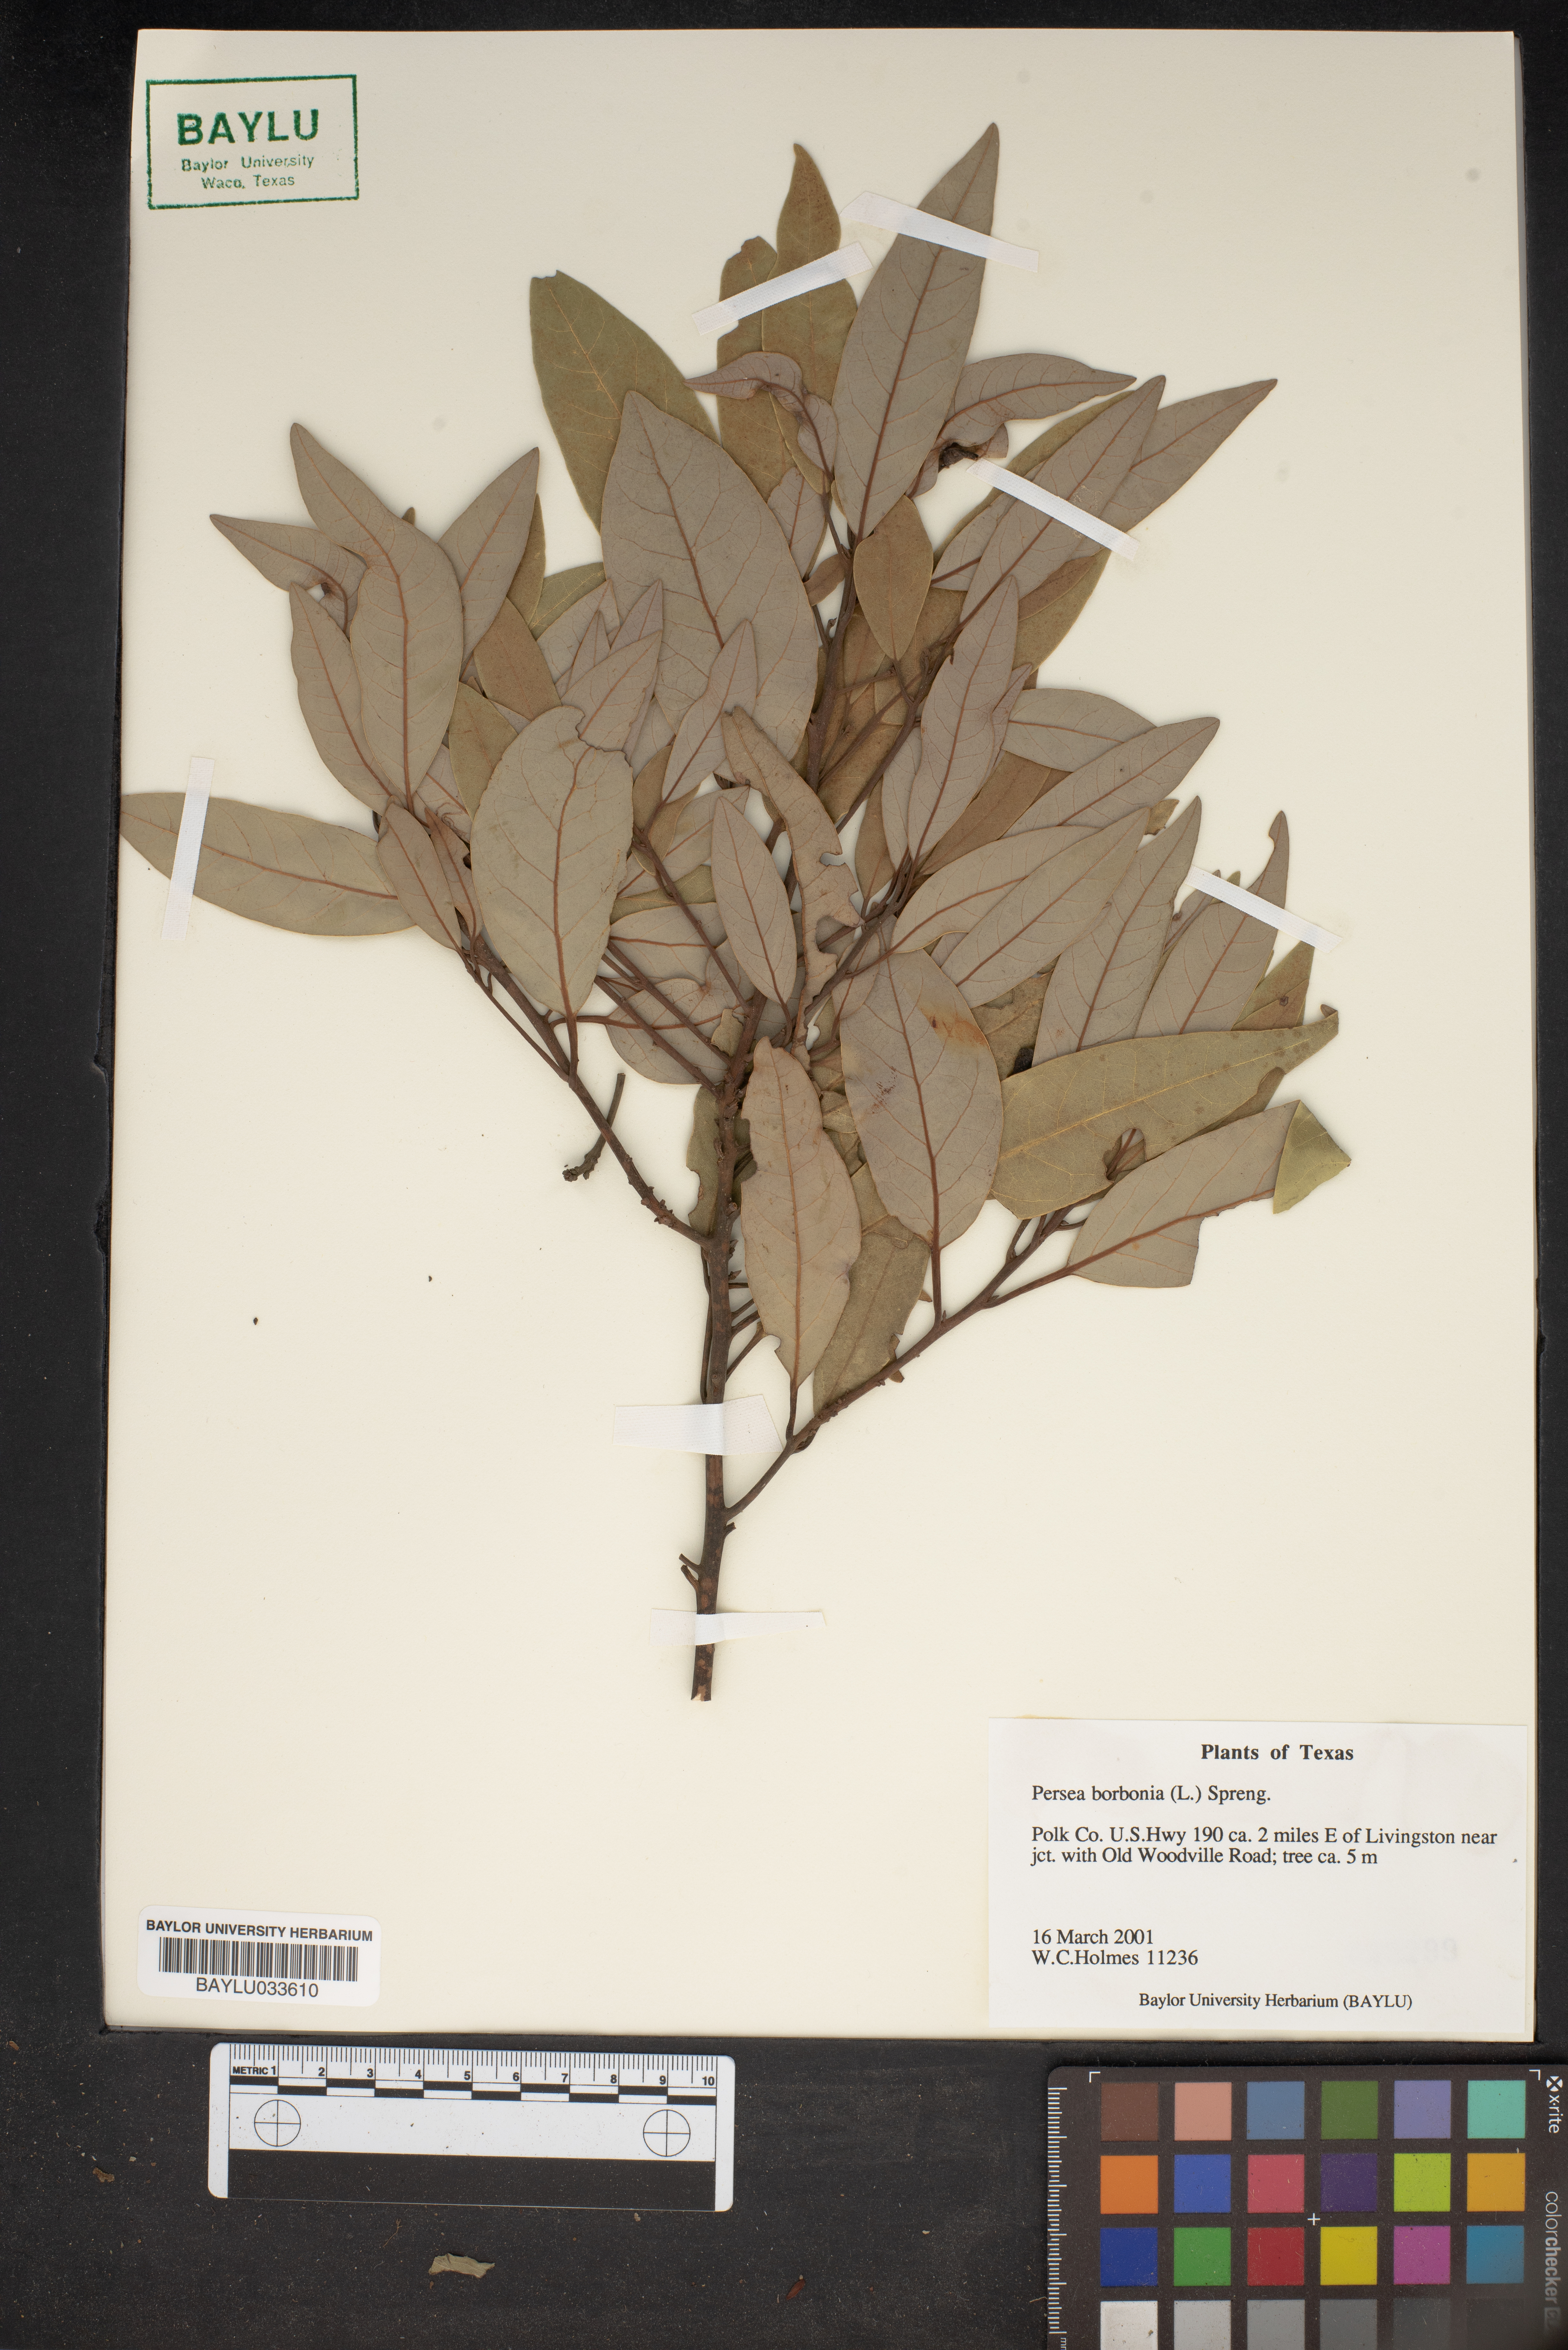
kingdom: Plantae
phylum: Tracheophyta
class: Magnoliopsida
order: Laurales
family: Lauraceae
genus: Persea
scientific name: Persea borbonia
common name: Redbay
